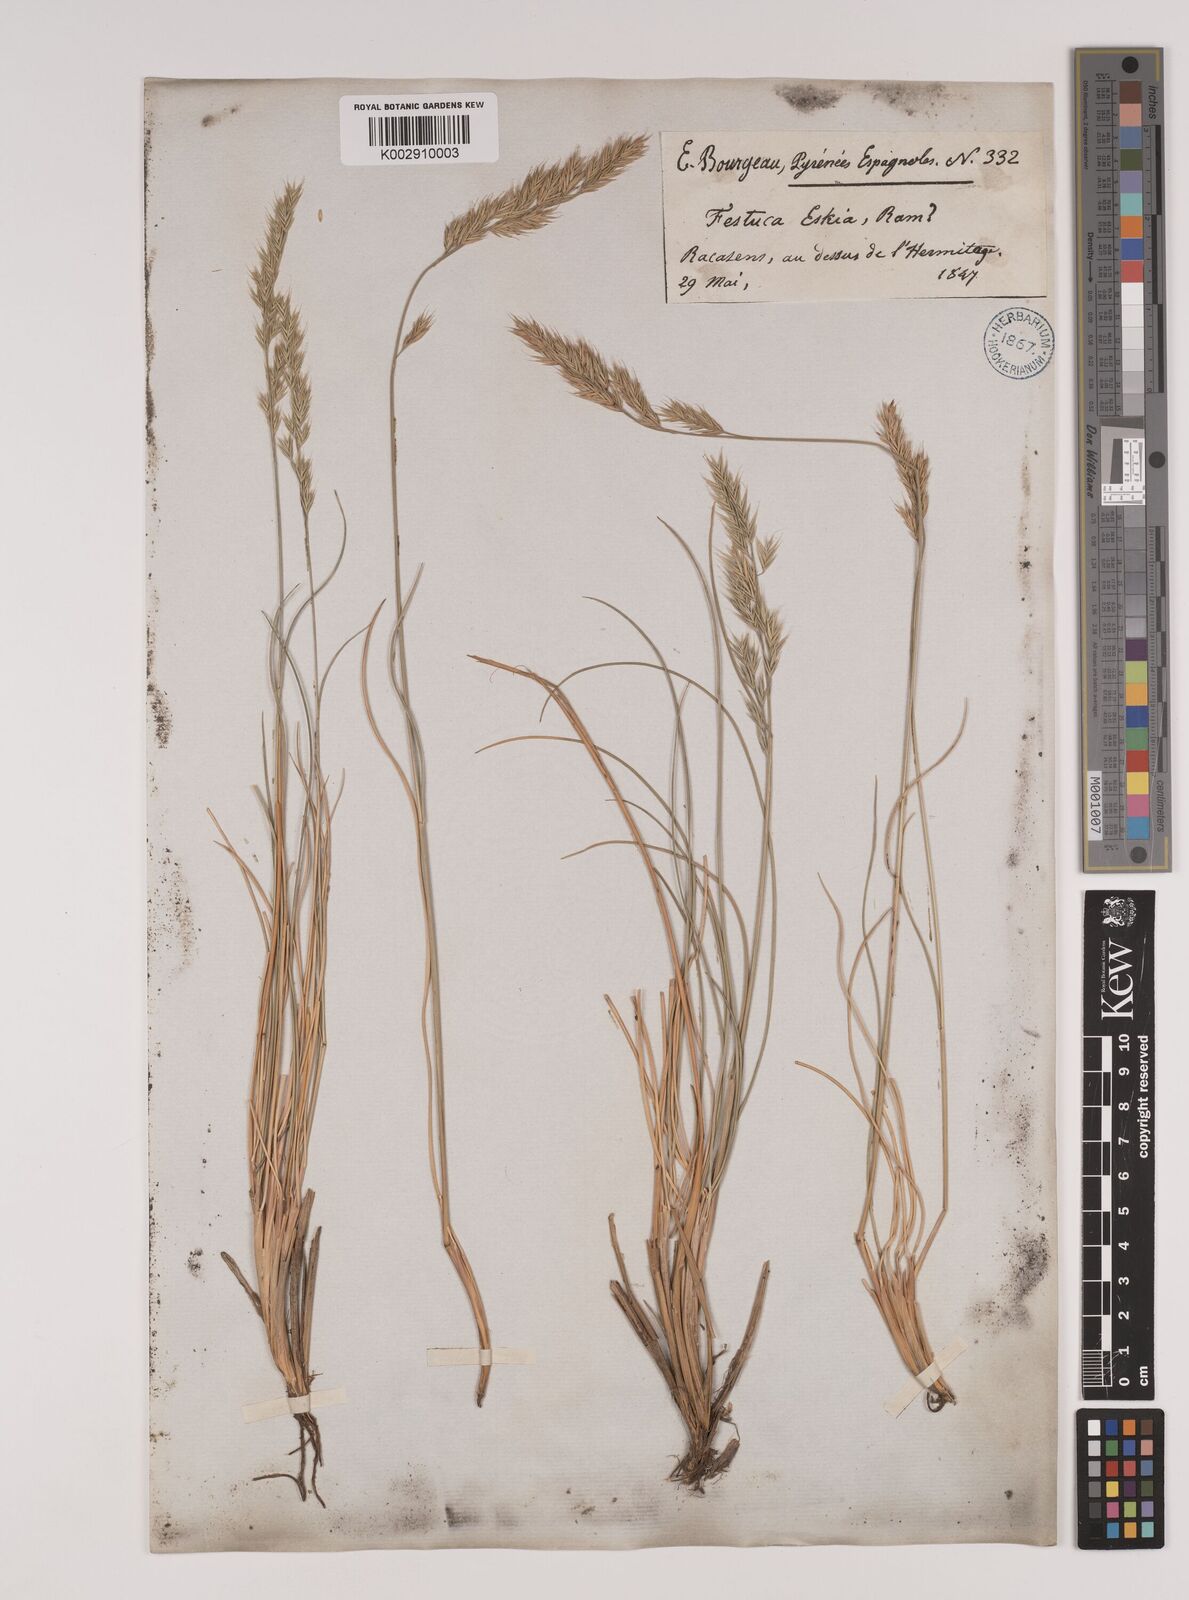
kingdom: Plantae
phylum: Tracheophyta
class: Liliopsida
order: Poales
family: Poaceae
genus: Festuca
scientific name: Festuca eskia
